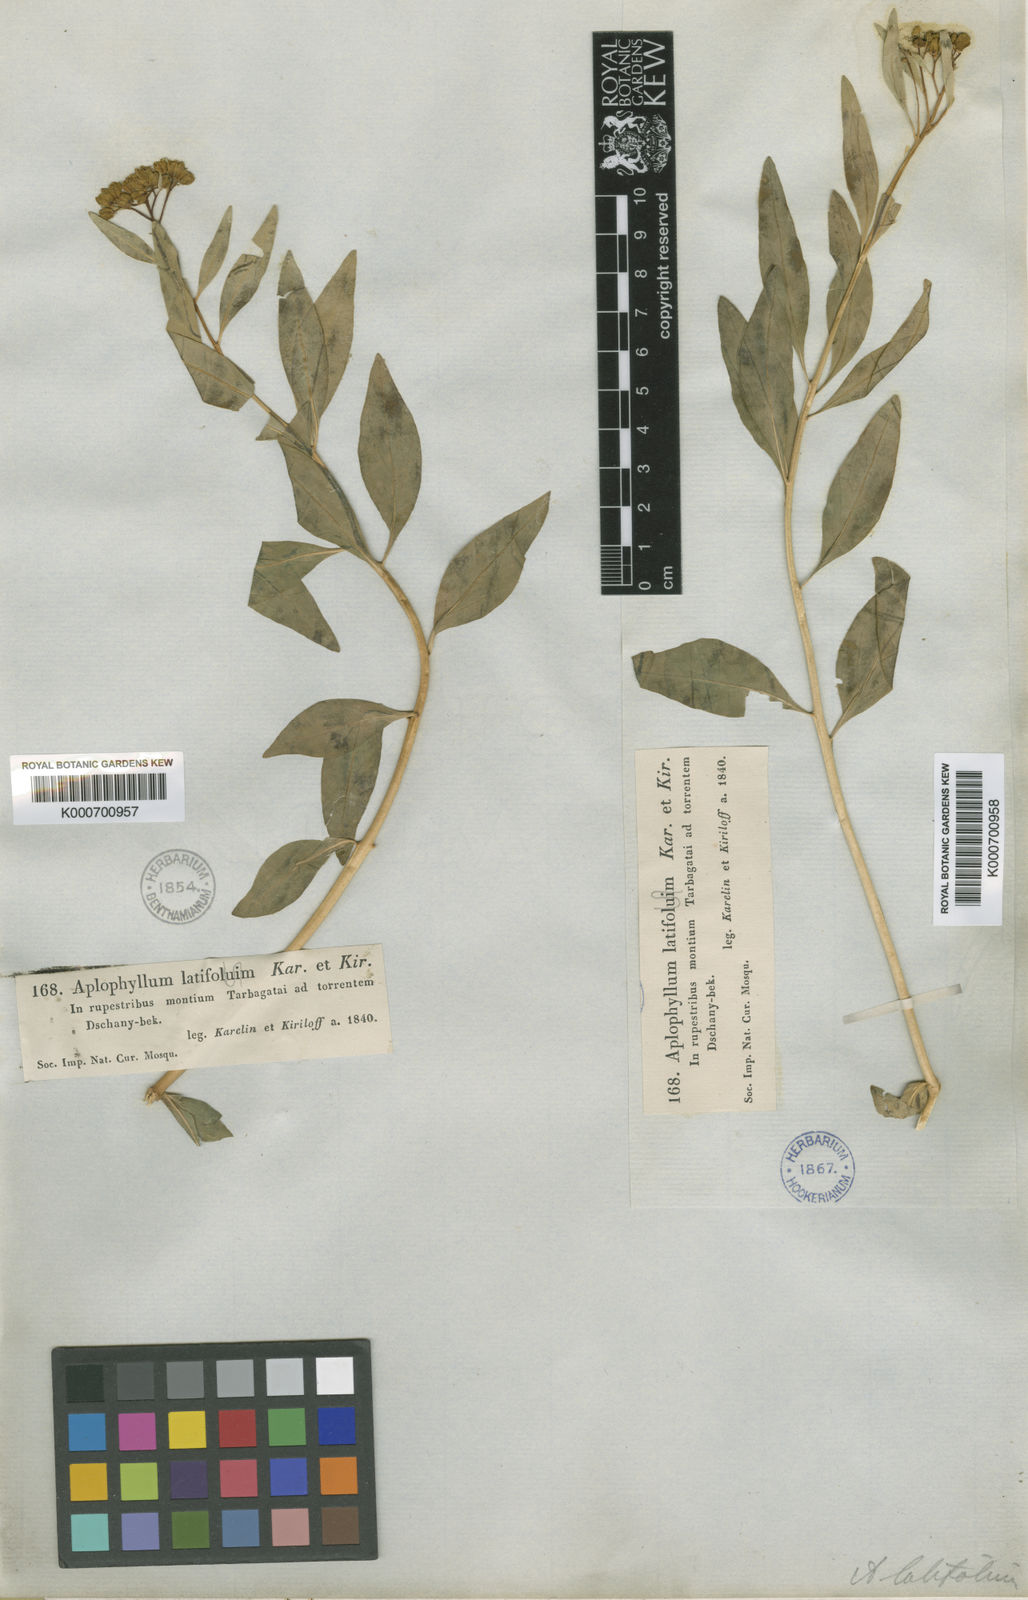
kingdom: Plantae
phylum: Tracheophyta
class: Magnoliopsida
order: Sapindales
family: Rutaceae
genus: Haplophyllum
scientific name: Haplophyllum latifolium
